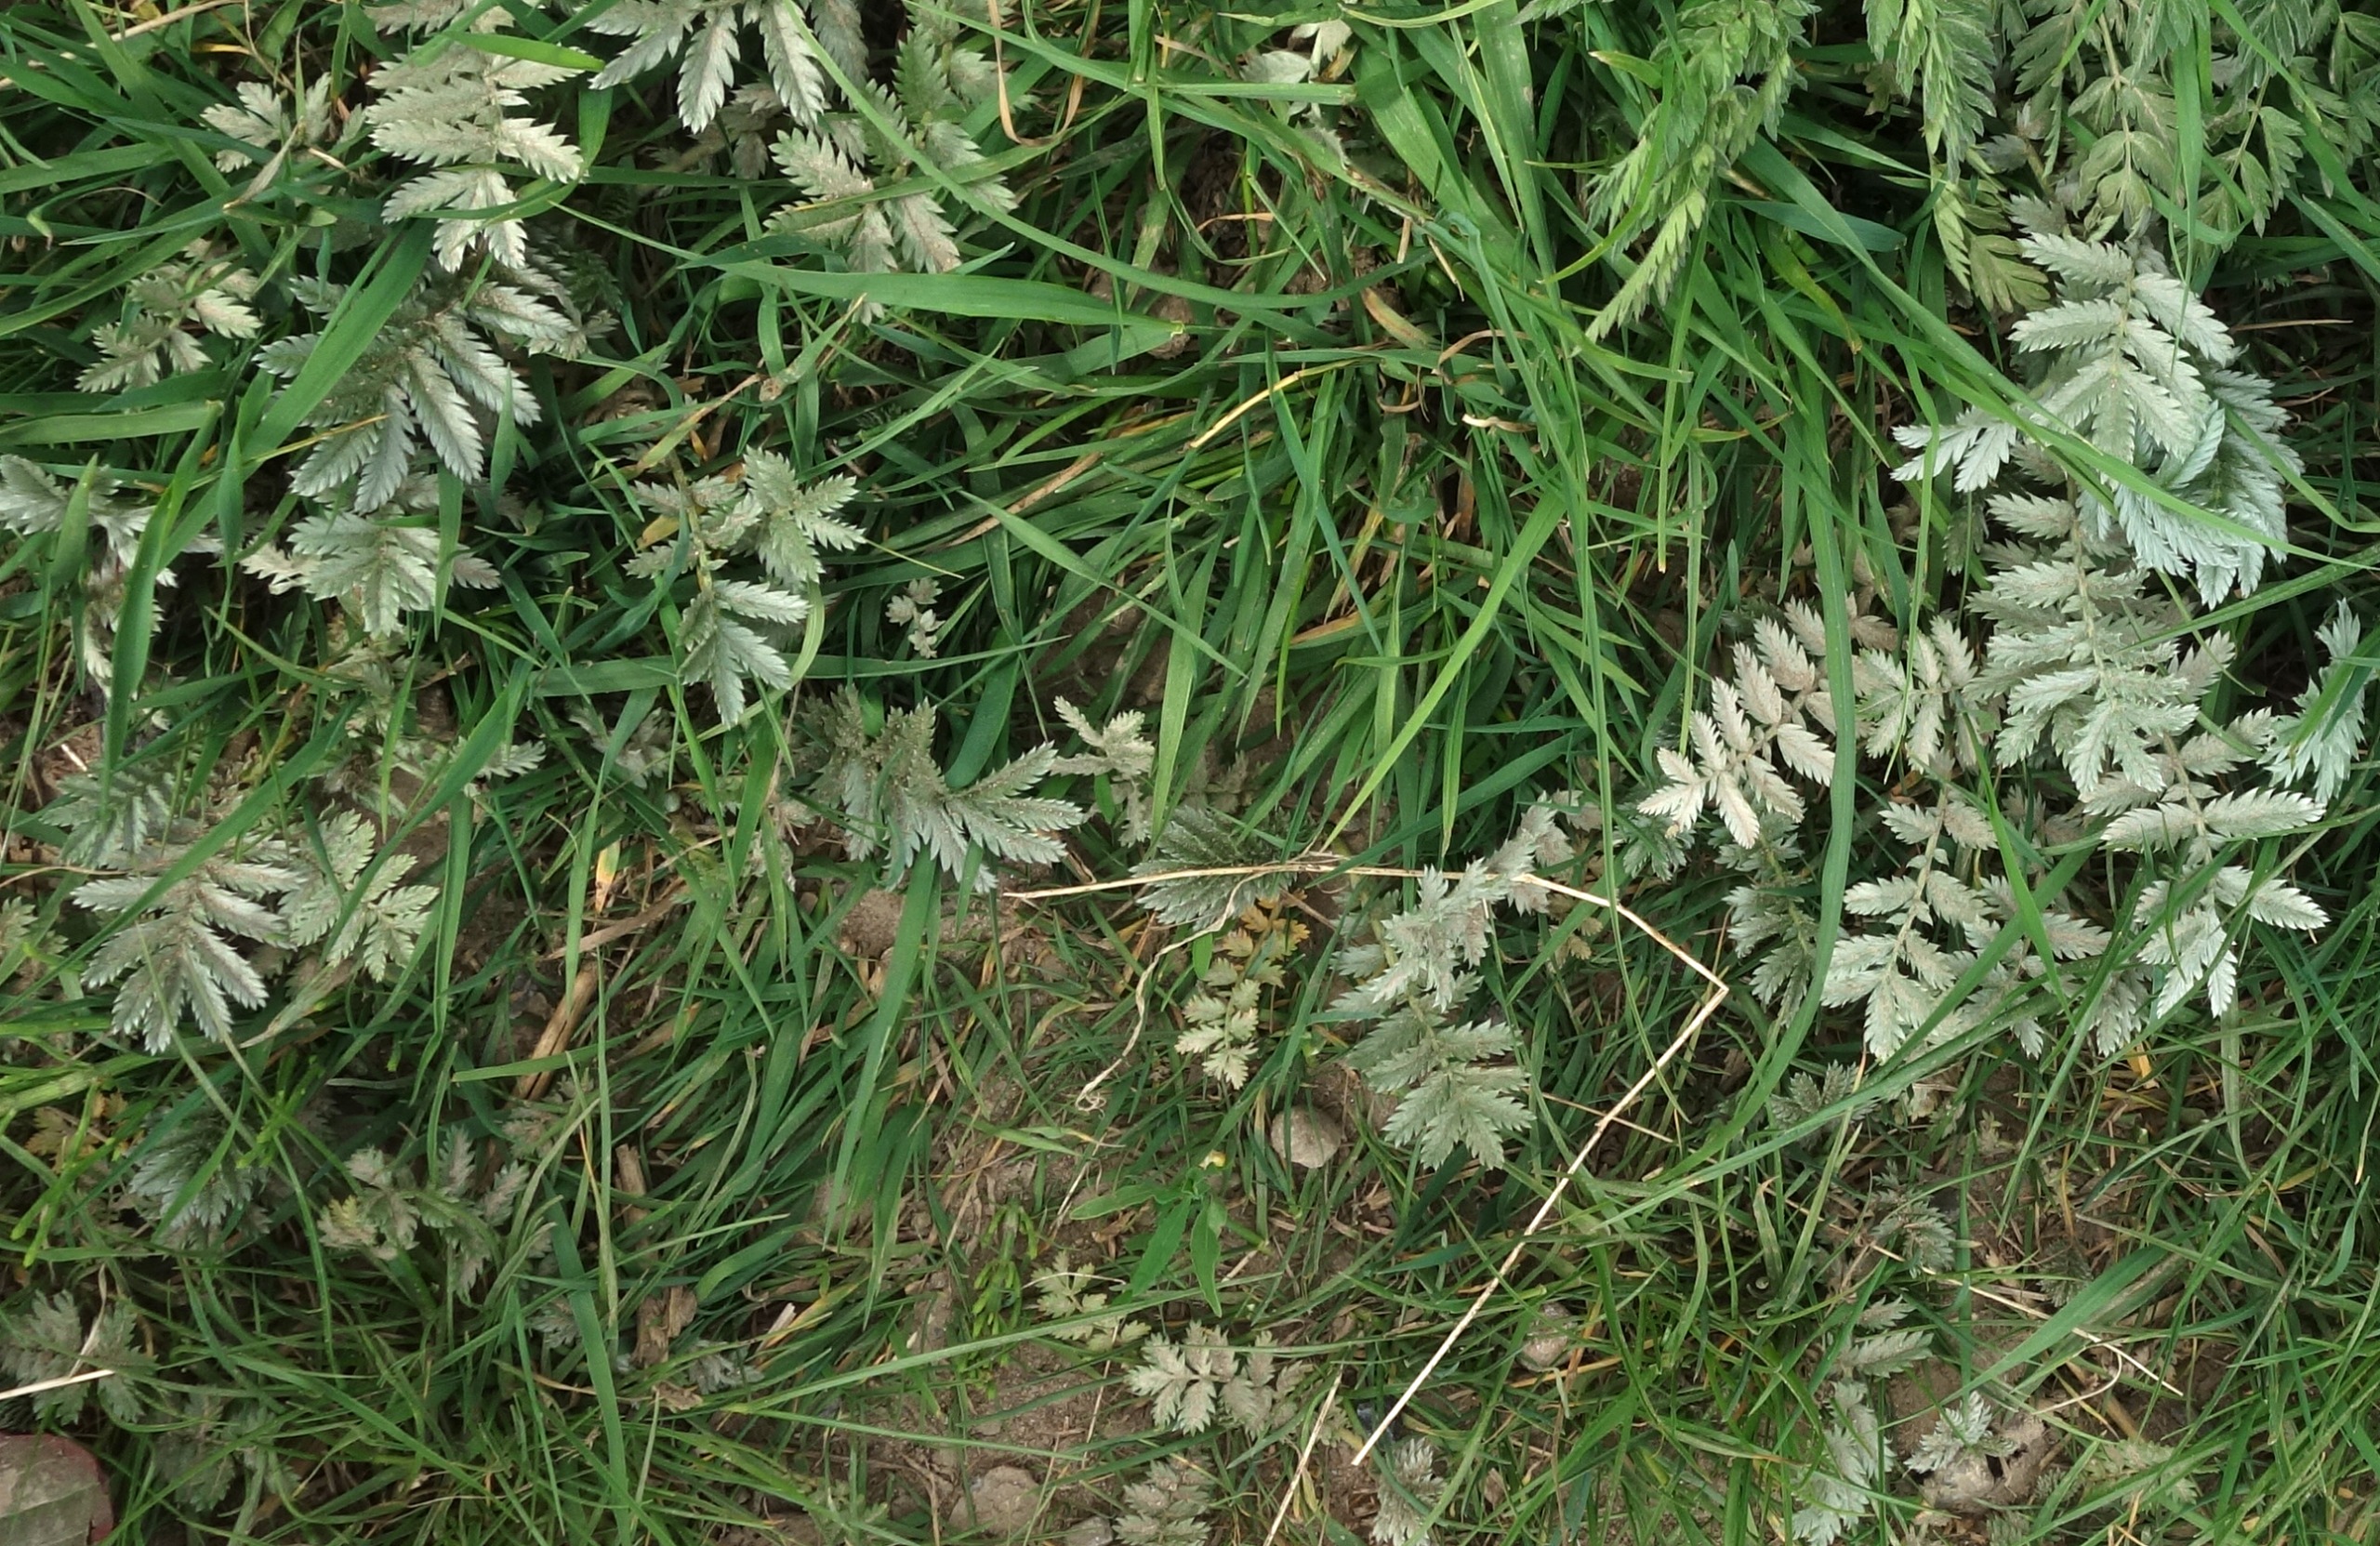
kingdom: Plantae
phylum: Tracheophyta
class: Magnoliopsida
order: Rosales
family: Rosaceae
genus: Argentina
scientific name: Argentina anserina
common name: Gåsepotentil
